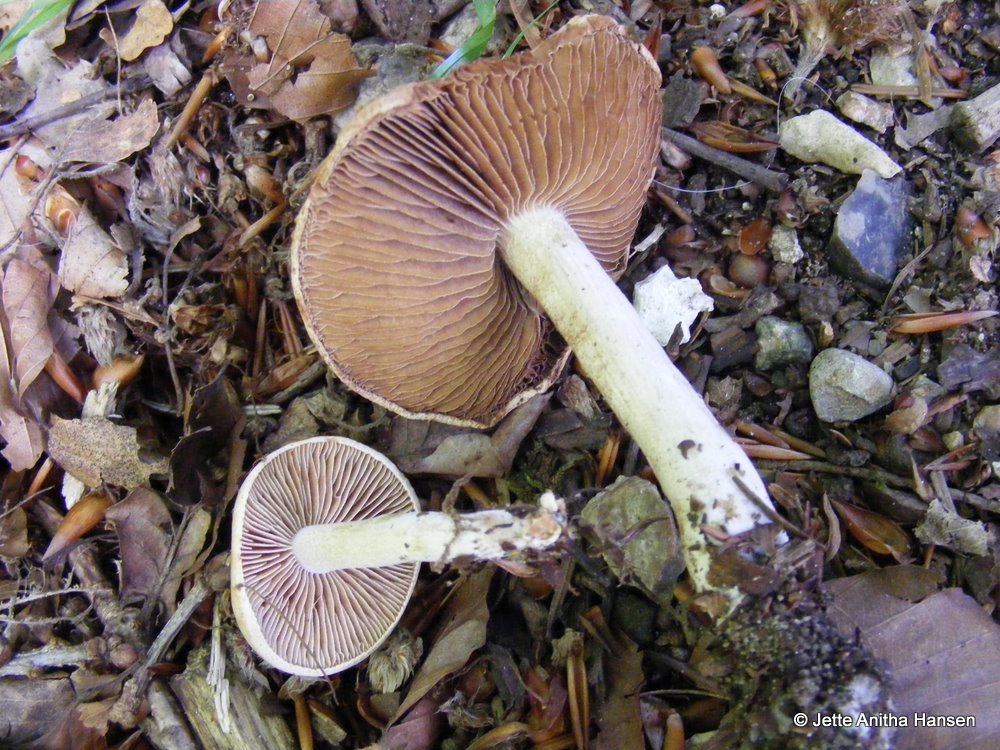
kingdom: Fungi
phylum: Basidiomycota
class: Agaricomycetes
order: Agaricales
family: Hymenogastraceae
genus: Hebeloma
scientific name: Hebeloma aestivale
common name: sommer-tåreblad
